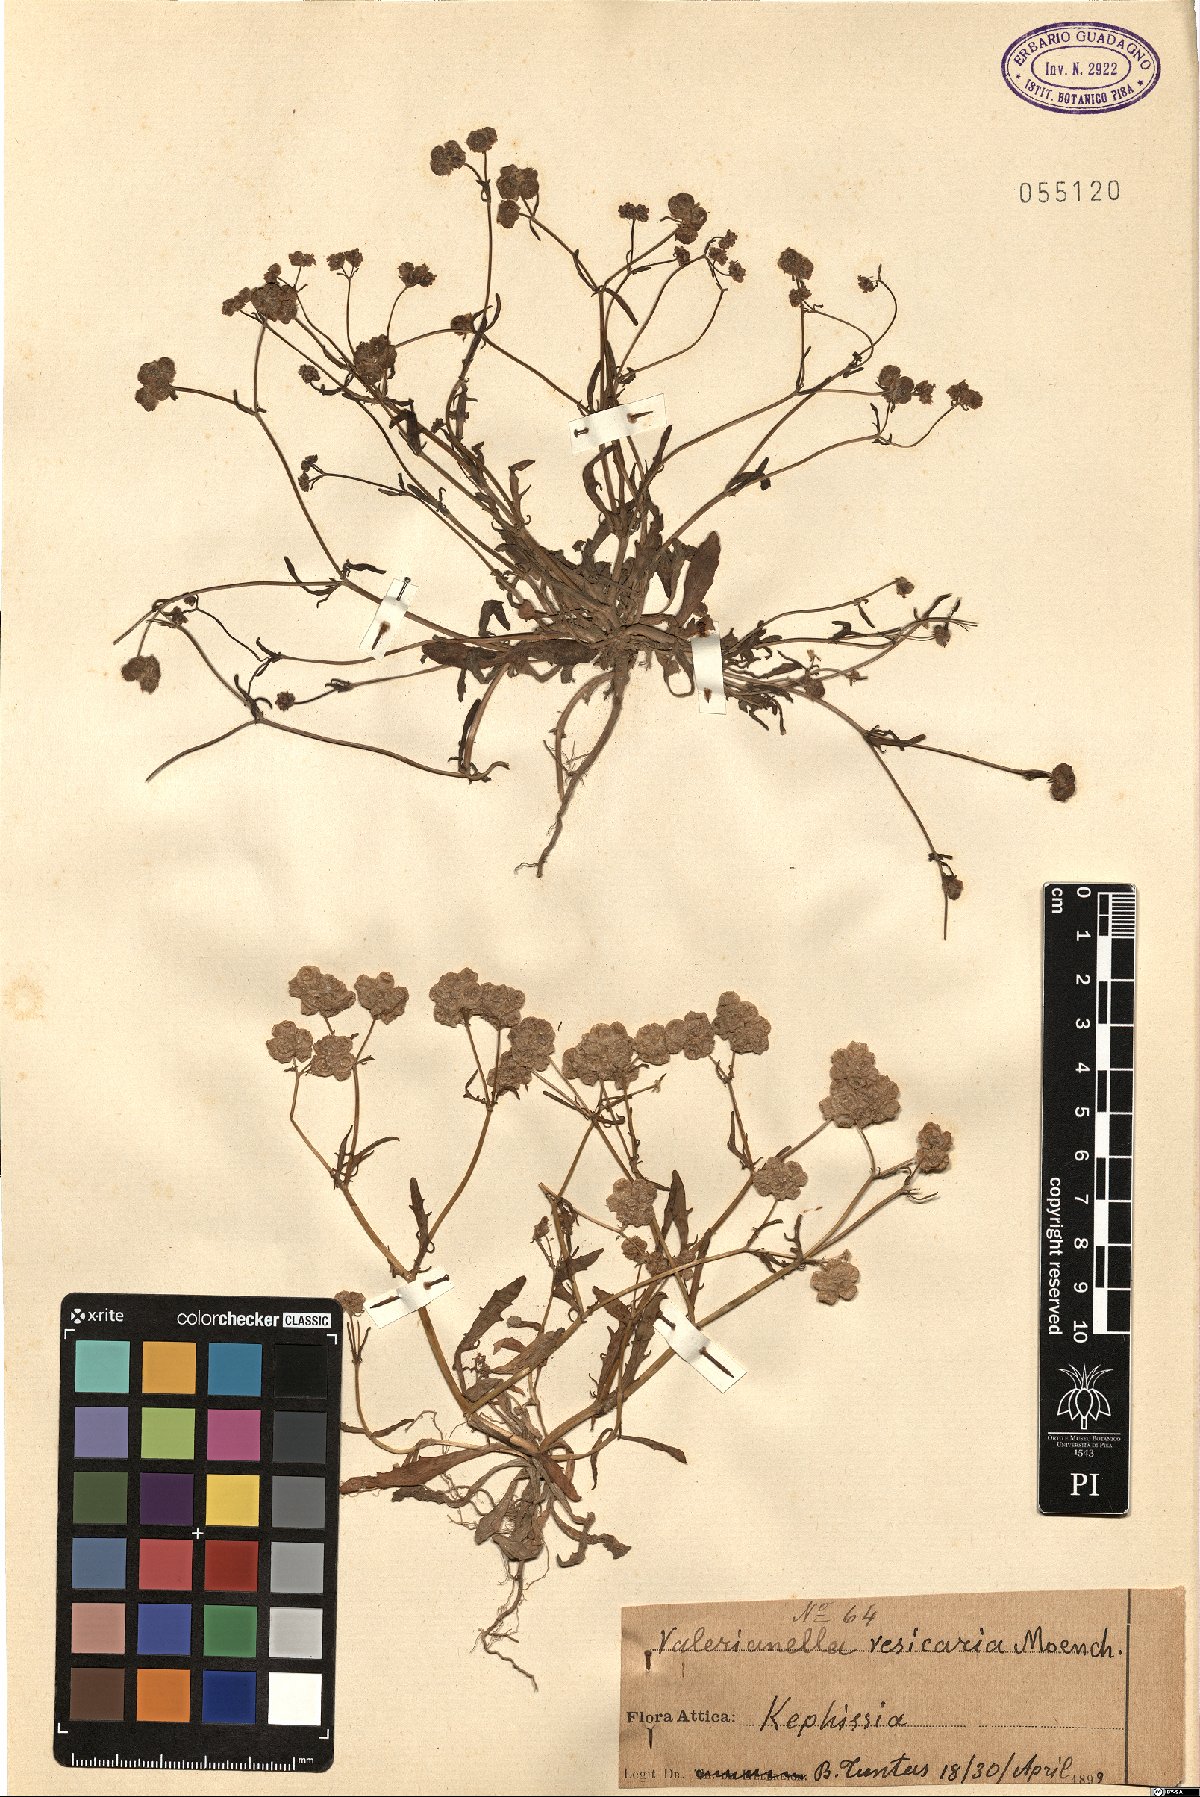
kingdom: Plantae
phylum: Tracheophyta
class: Magnoliopsida
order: Dipsacales
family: Caprifoliaceae
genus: Valerianella
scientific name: Valerianella vesicaria
